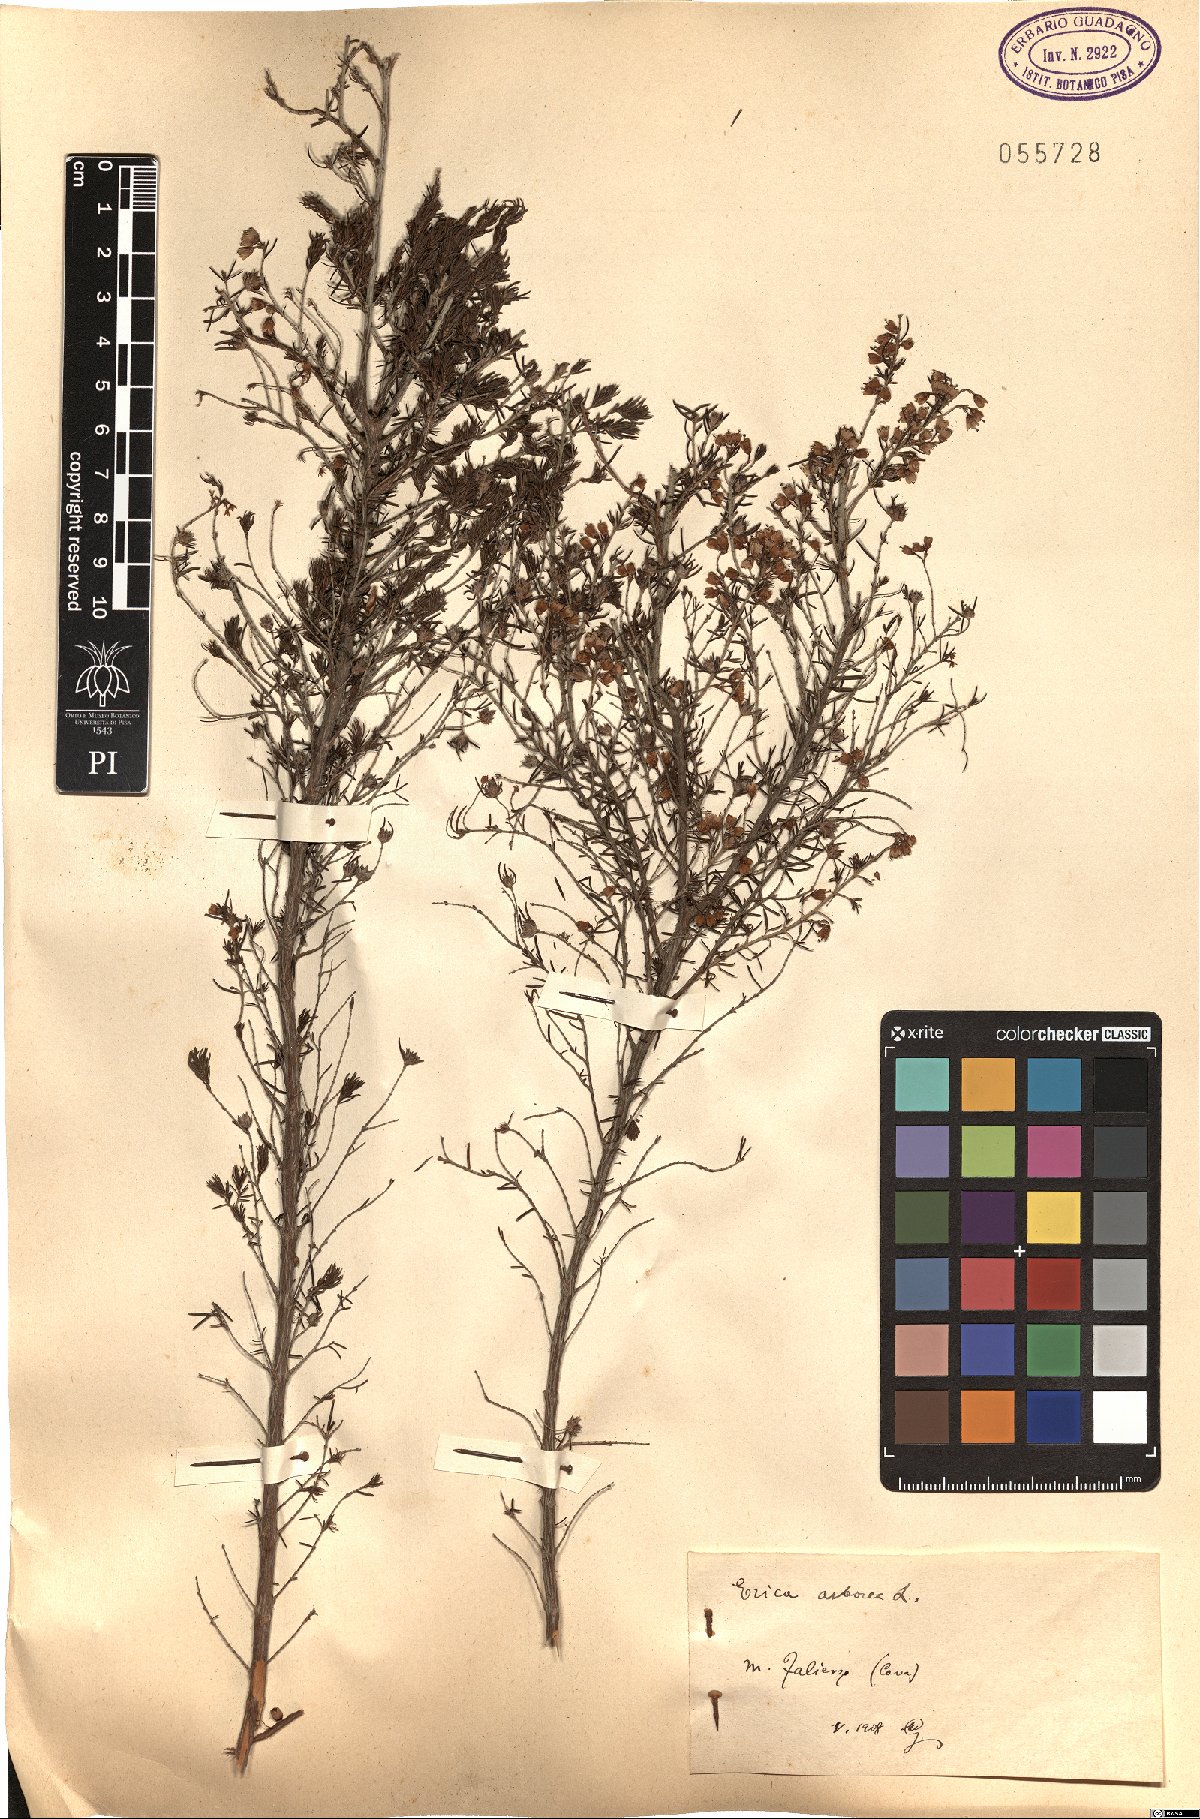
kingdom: Plantae
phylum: Tracheophyta
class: Magnoliopsida
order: Ericales
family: Ericaceae
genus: Erica
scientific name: Erica arborea
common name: Tree heath
